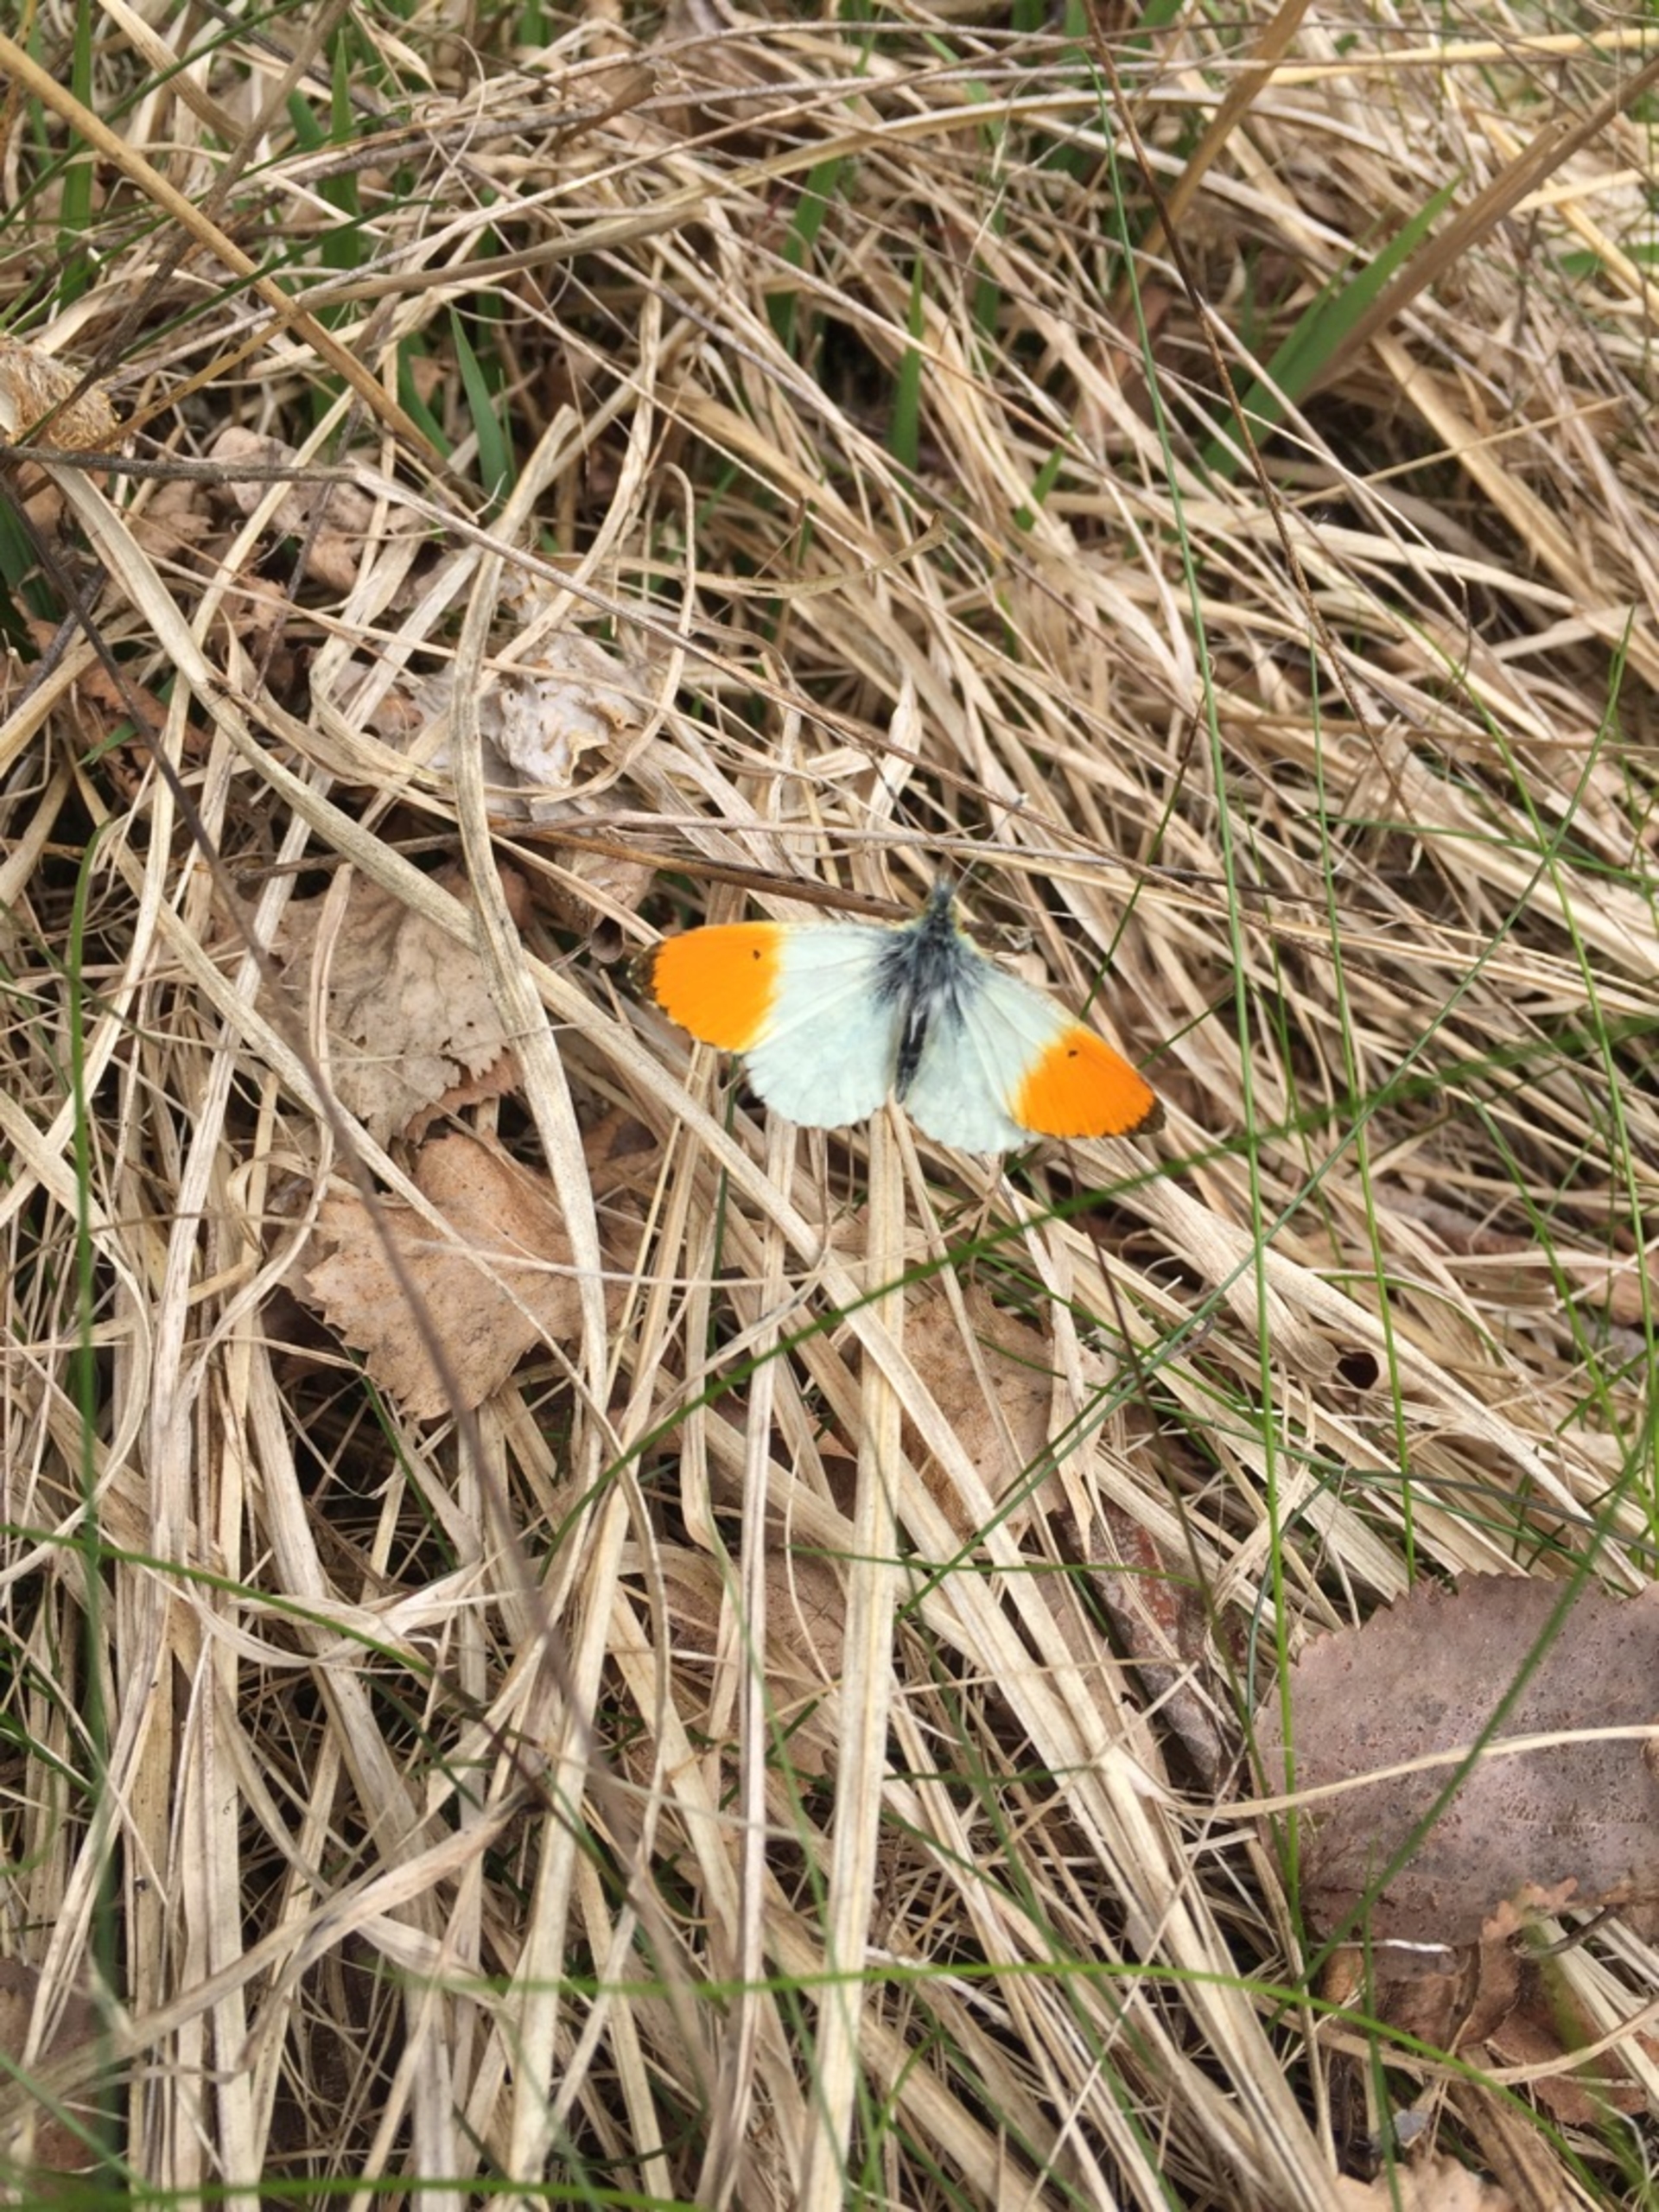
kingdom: Animalia
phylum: Arthropoda
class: Insecta
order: Lepidoptera
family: Pieridae
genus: Anthocharis
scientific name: Anthocharis cardamines
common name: Aurora
